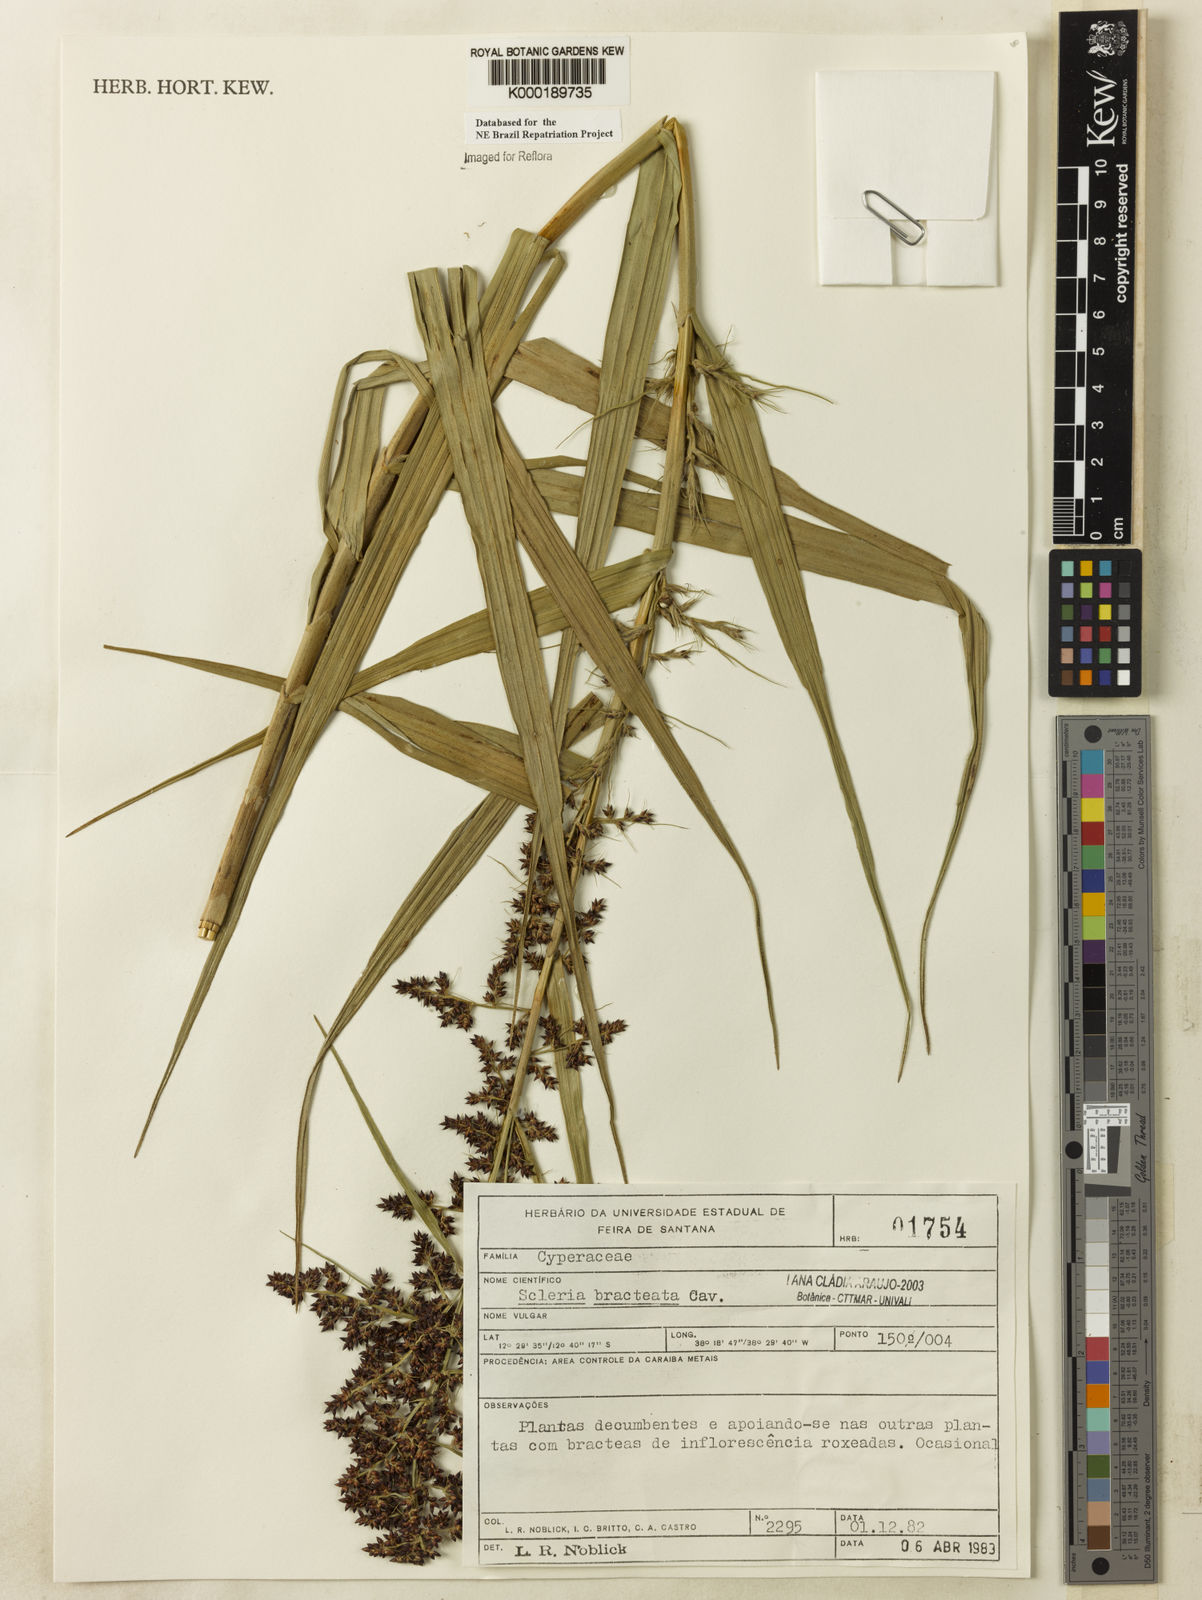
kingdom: Plantae
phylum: Tracheophyta
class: Liliopsida
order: Poales
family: Cyperaceae
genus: Scleria
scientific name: Scleria bracteata
